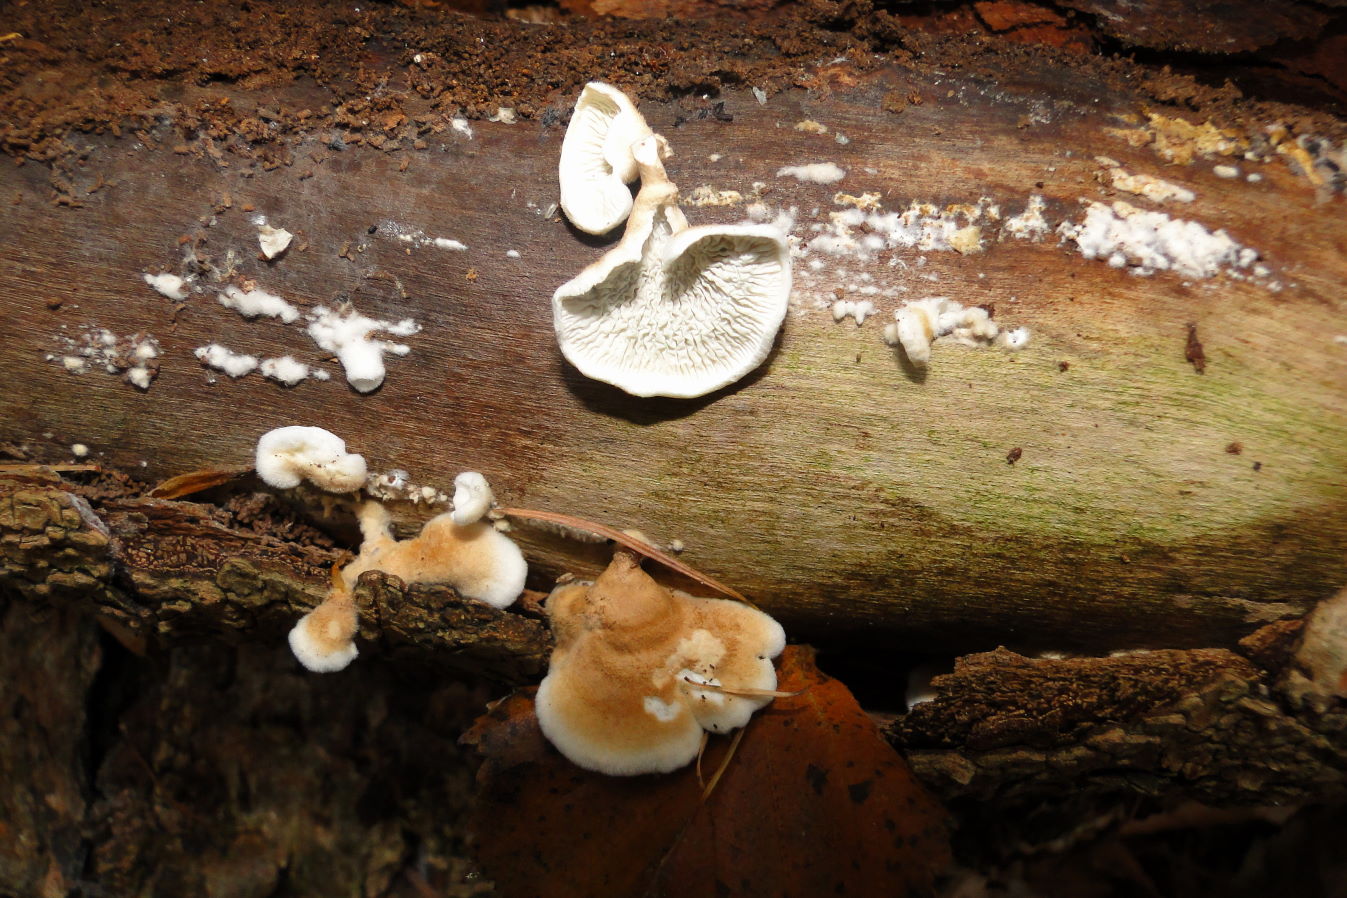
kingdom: Fungi
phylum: Basidiomycota
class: Agaricomycetes
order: Amylocorticiales
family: Amylocorticiaceae
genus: Plicaturopsis
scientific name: Plicaturopsis crispa
